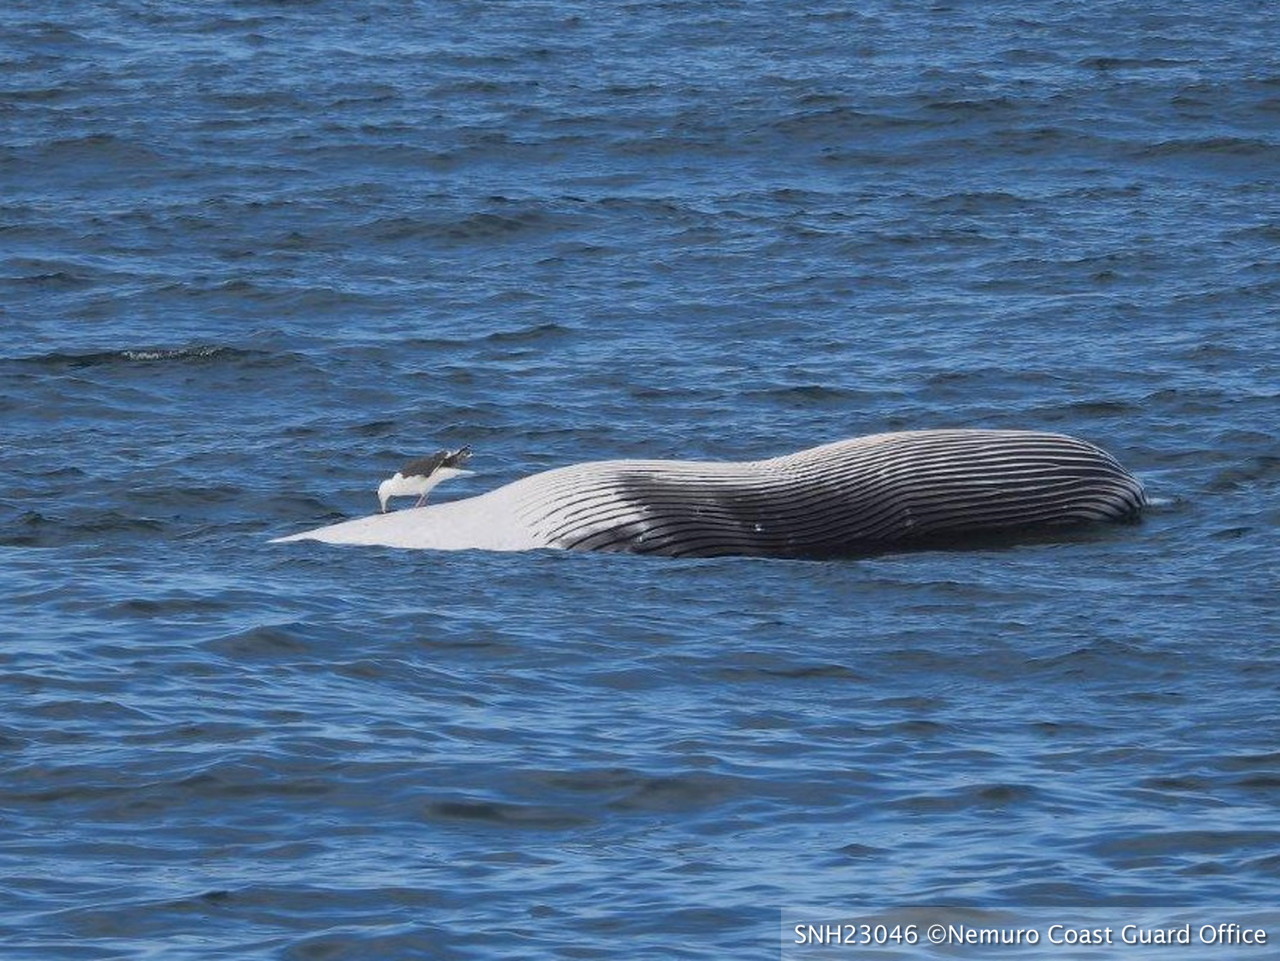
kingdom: Animalia
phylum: Chordata
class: Mammalia
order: Cetacea
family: Balaenopteridae
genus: Balaenoptera
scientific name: Balaenoptera
